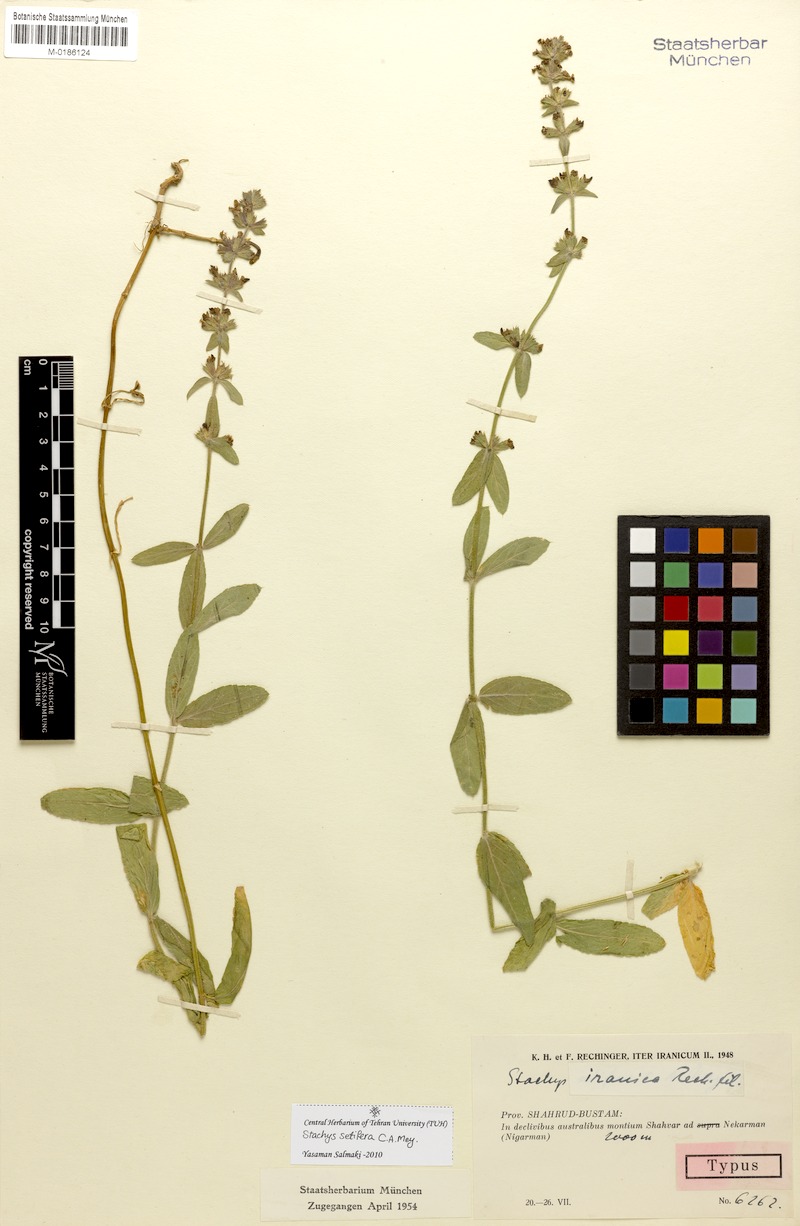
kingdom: Plantae
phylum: Tracheophyta
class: Magnoliopsida
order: Lamiales
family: Lamiaceae
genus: Stachys
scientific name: Stachys setifera
